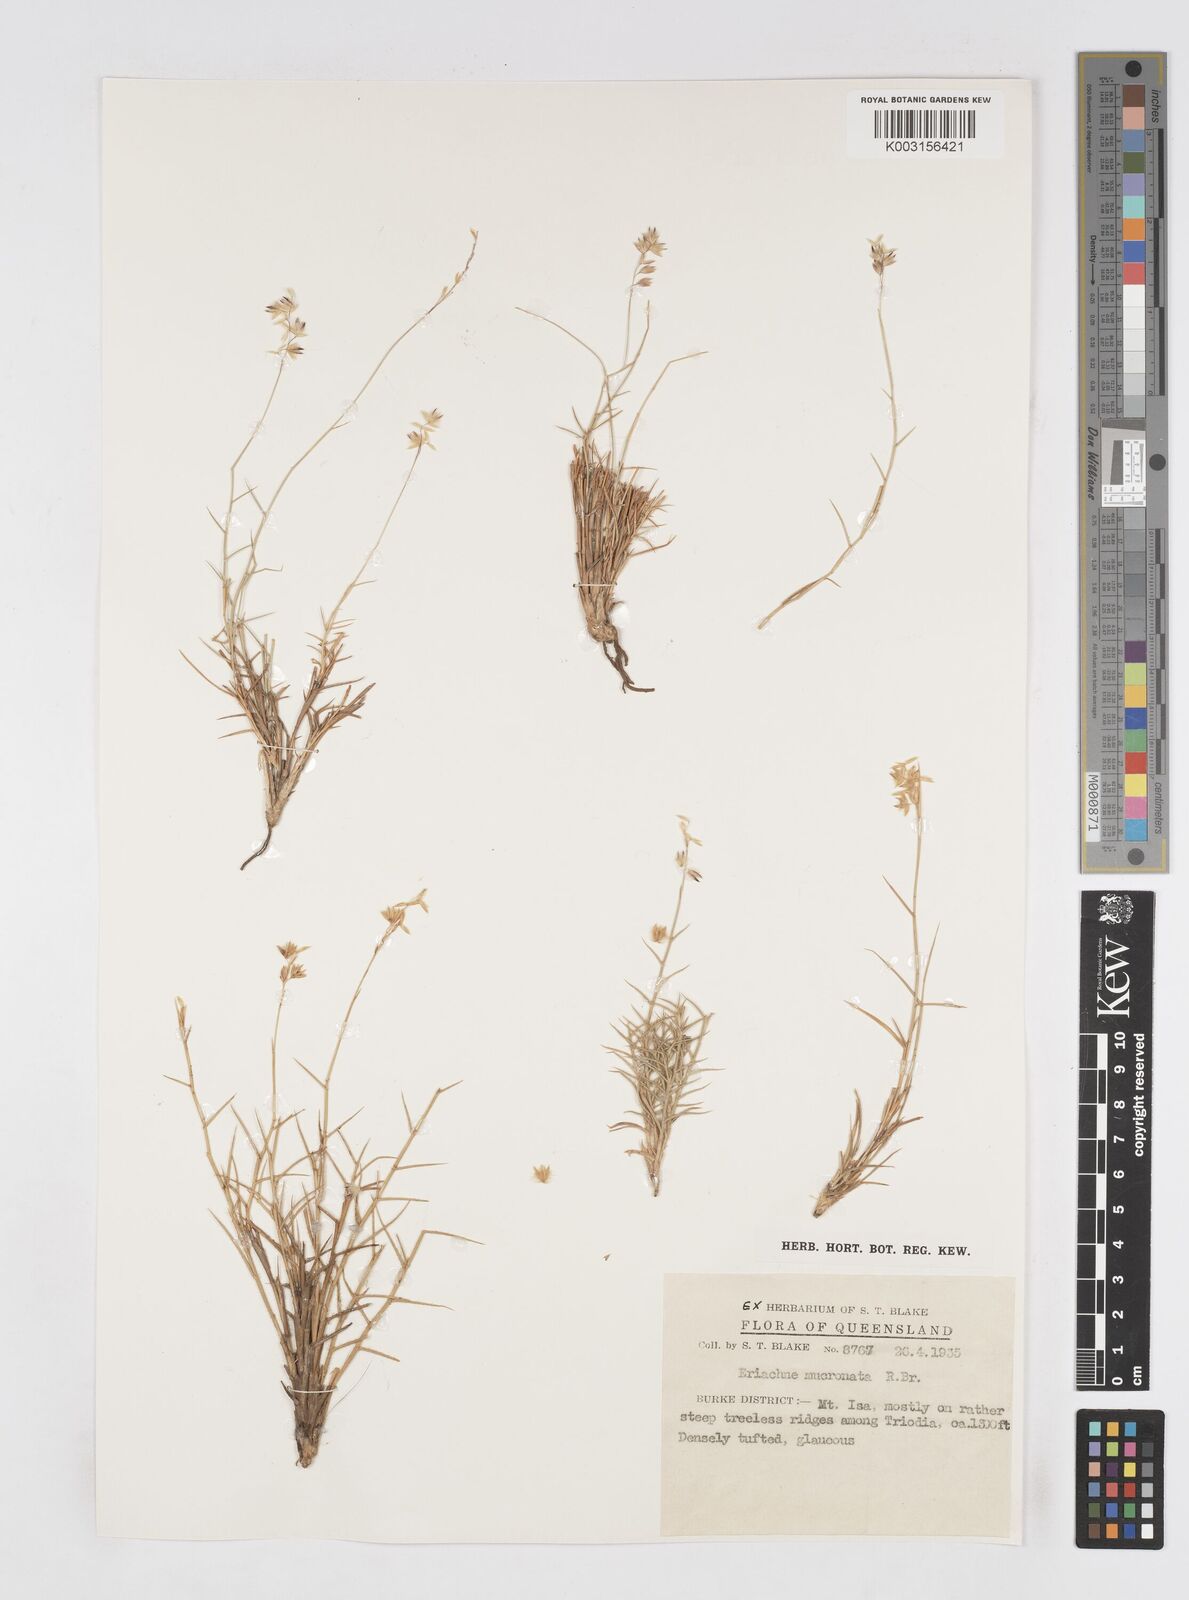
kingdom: Plantae
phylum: Tracheophyta
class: Liliopsida
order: Poales
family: Poaceae
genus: Eriachne
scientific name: Eriachne mucronata
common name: Mountain wanderrie grass
